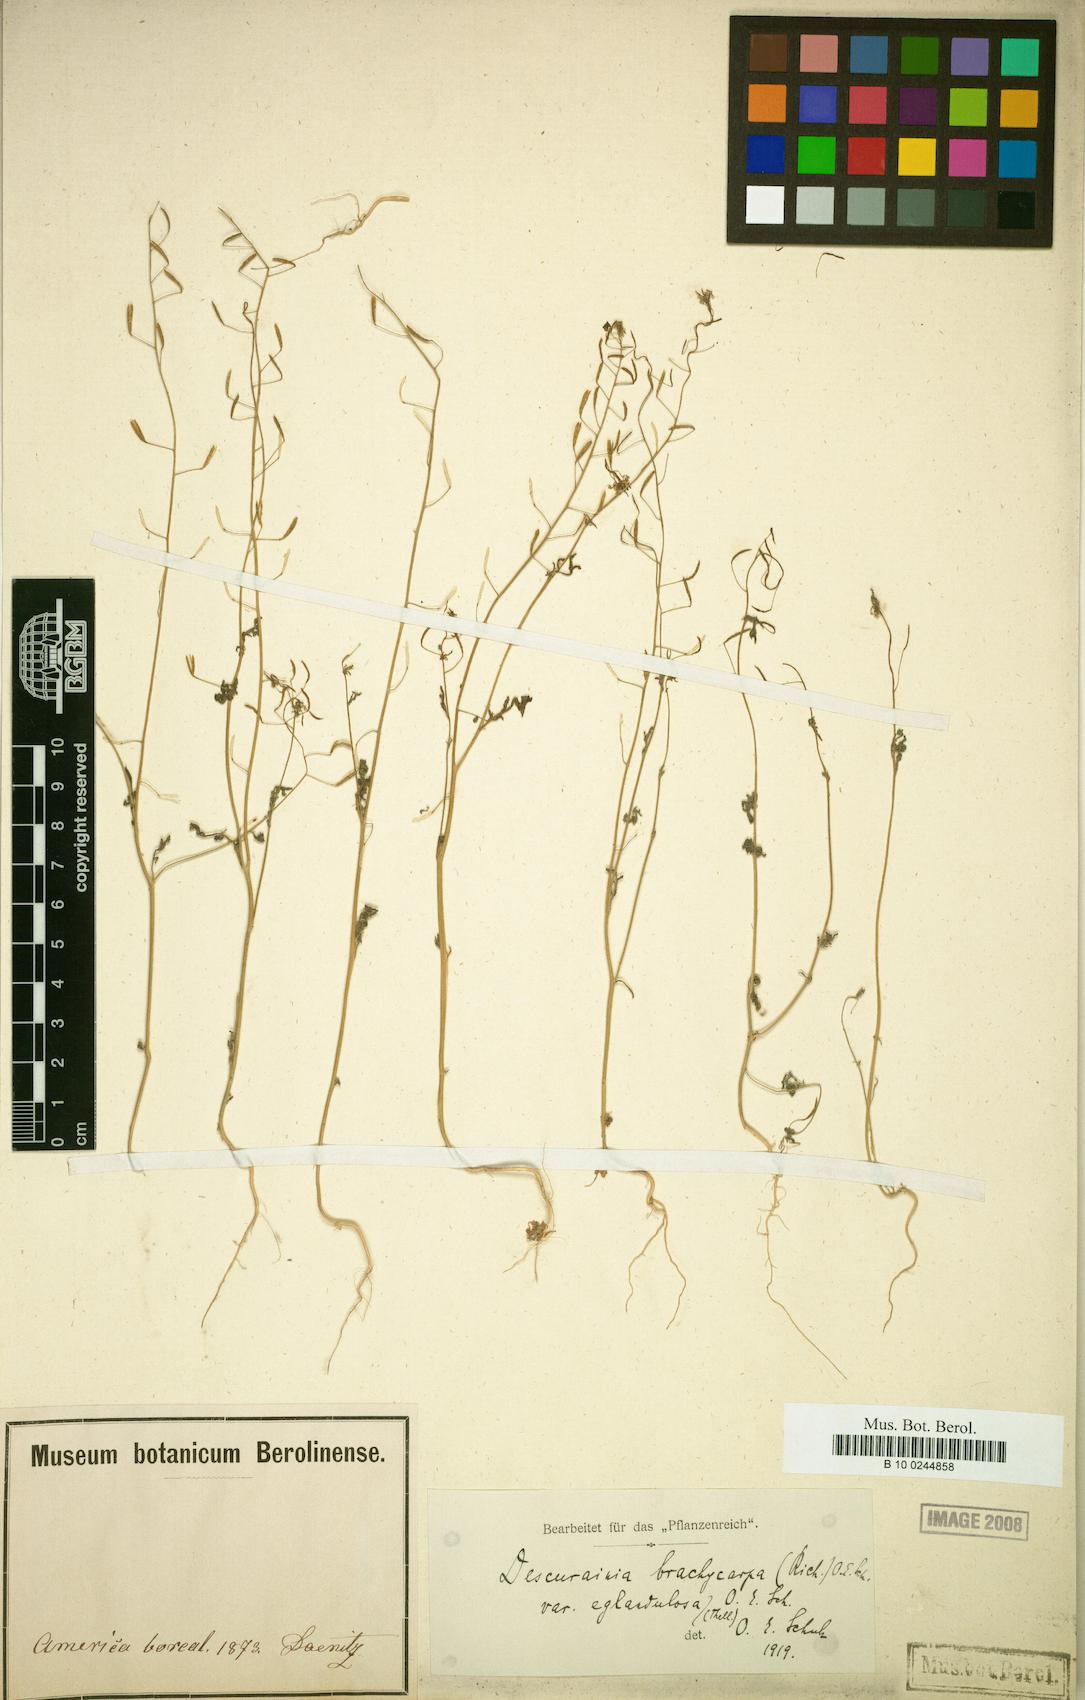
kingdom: Plantae
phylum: Tracheophyta
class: Magnoliopsida
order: Brassicales
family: Brassicaceae
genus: Descurainia
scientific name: Descurainia longepedicellata
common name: Erect-fruit mountain tansy mustard
